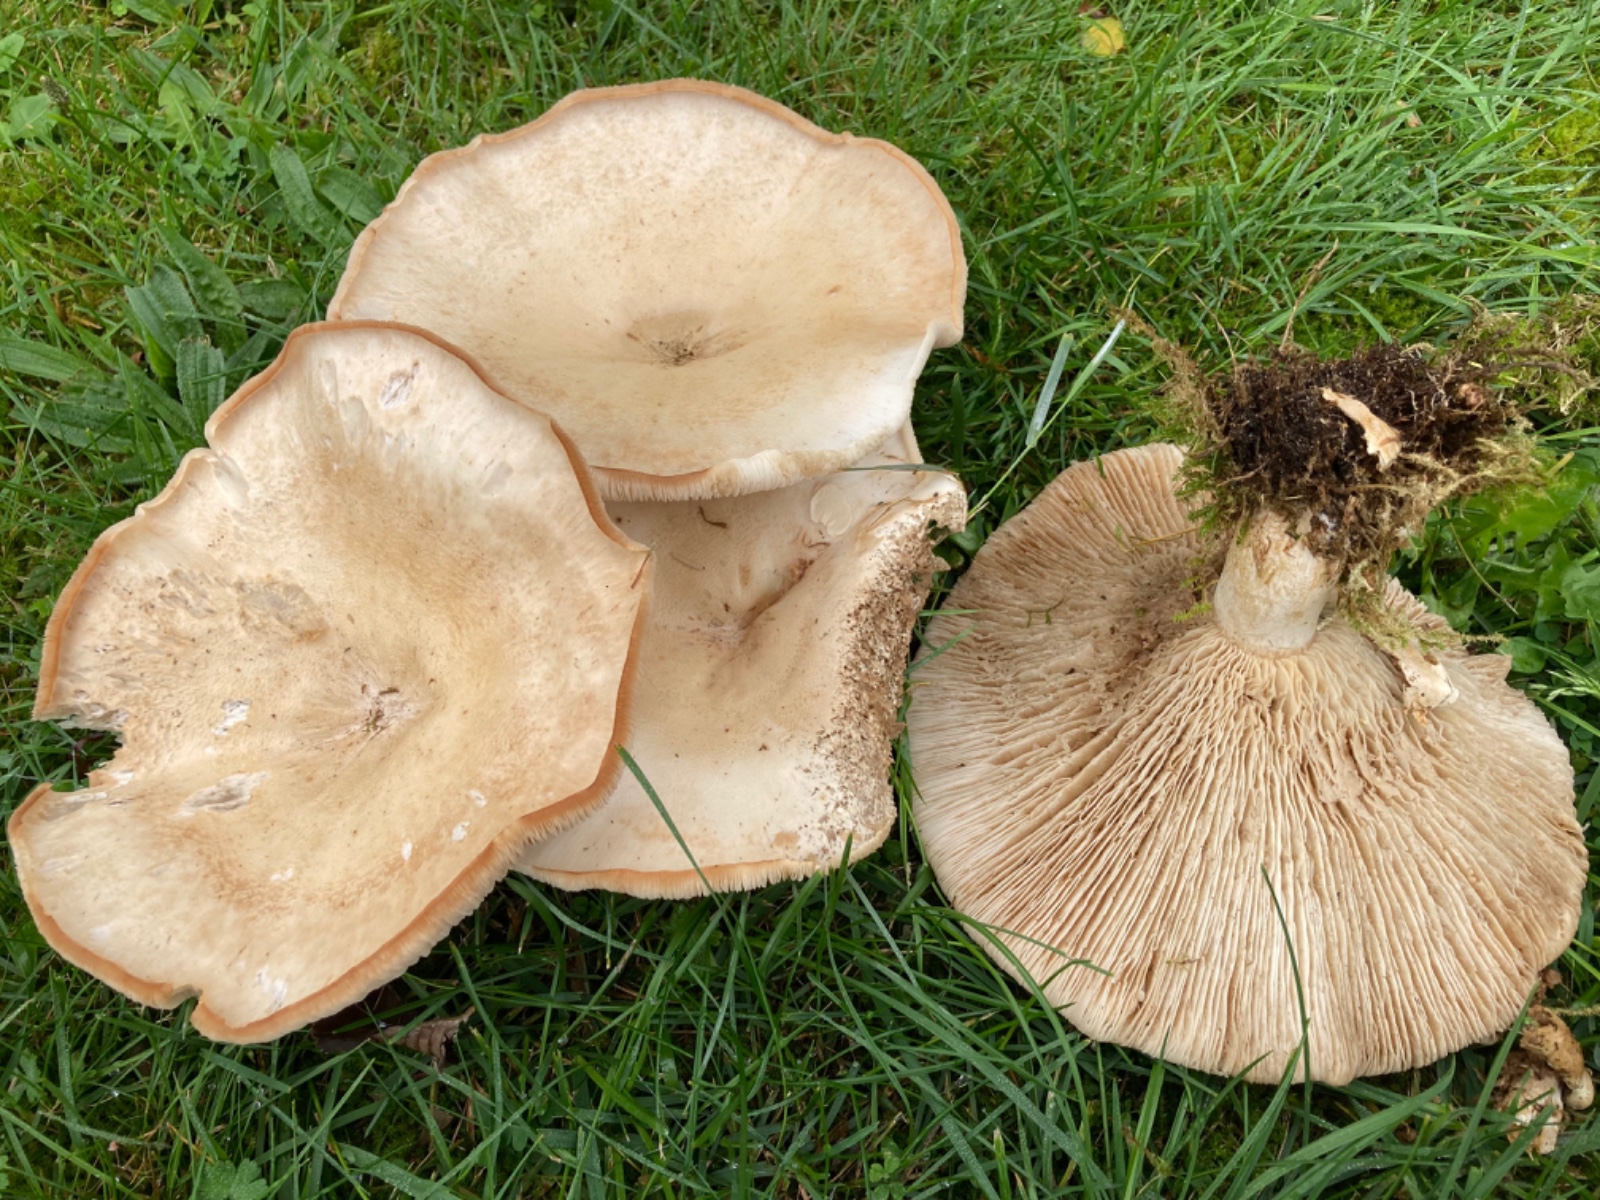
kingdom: Plantae
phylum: Bryophyta
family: Agaricomycetidae
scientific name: Agaricomycetidae
